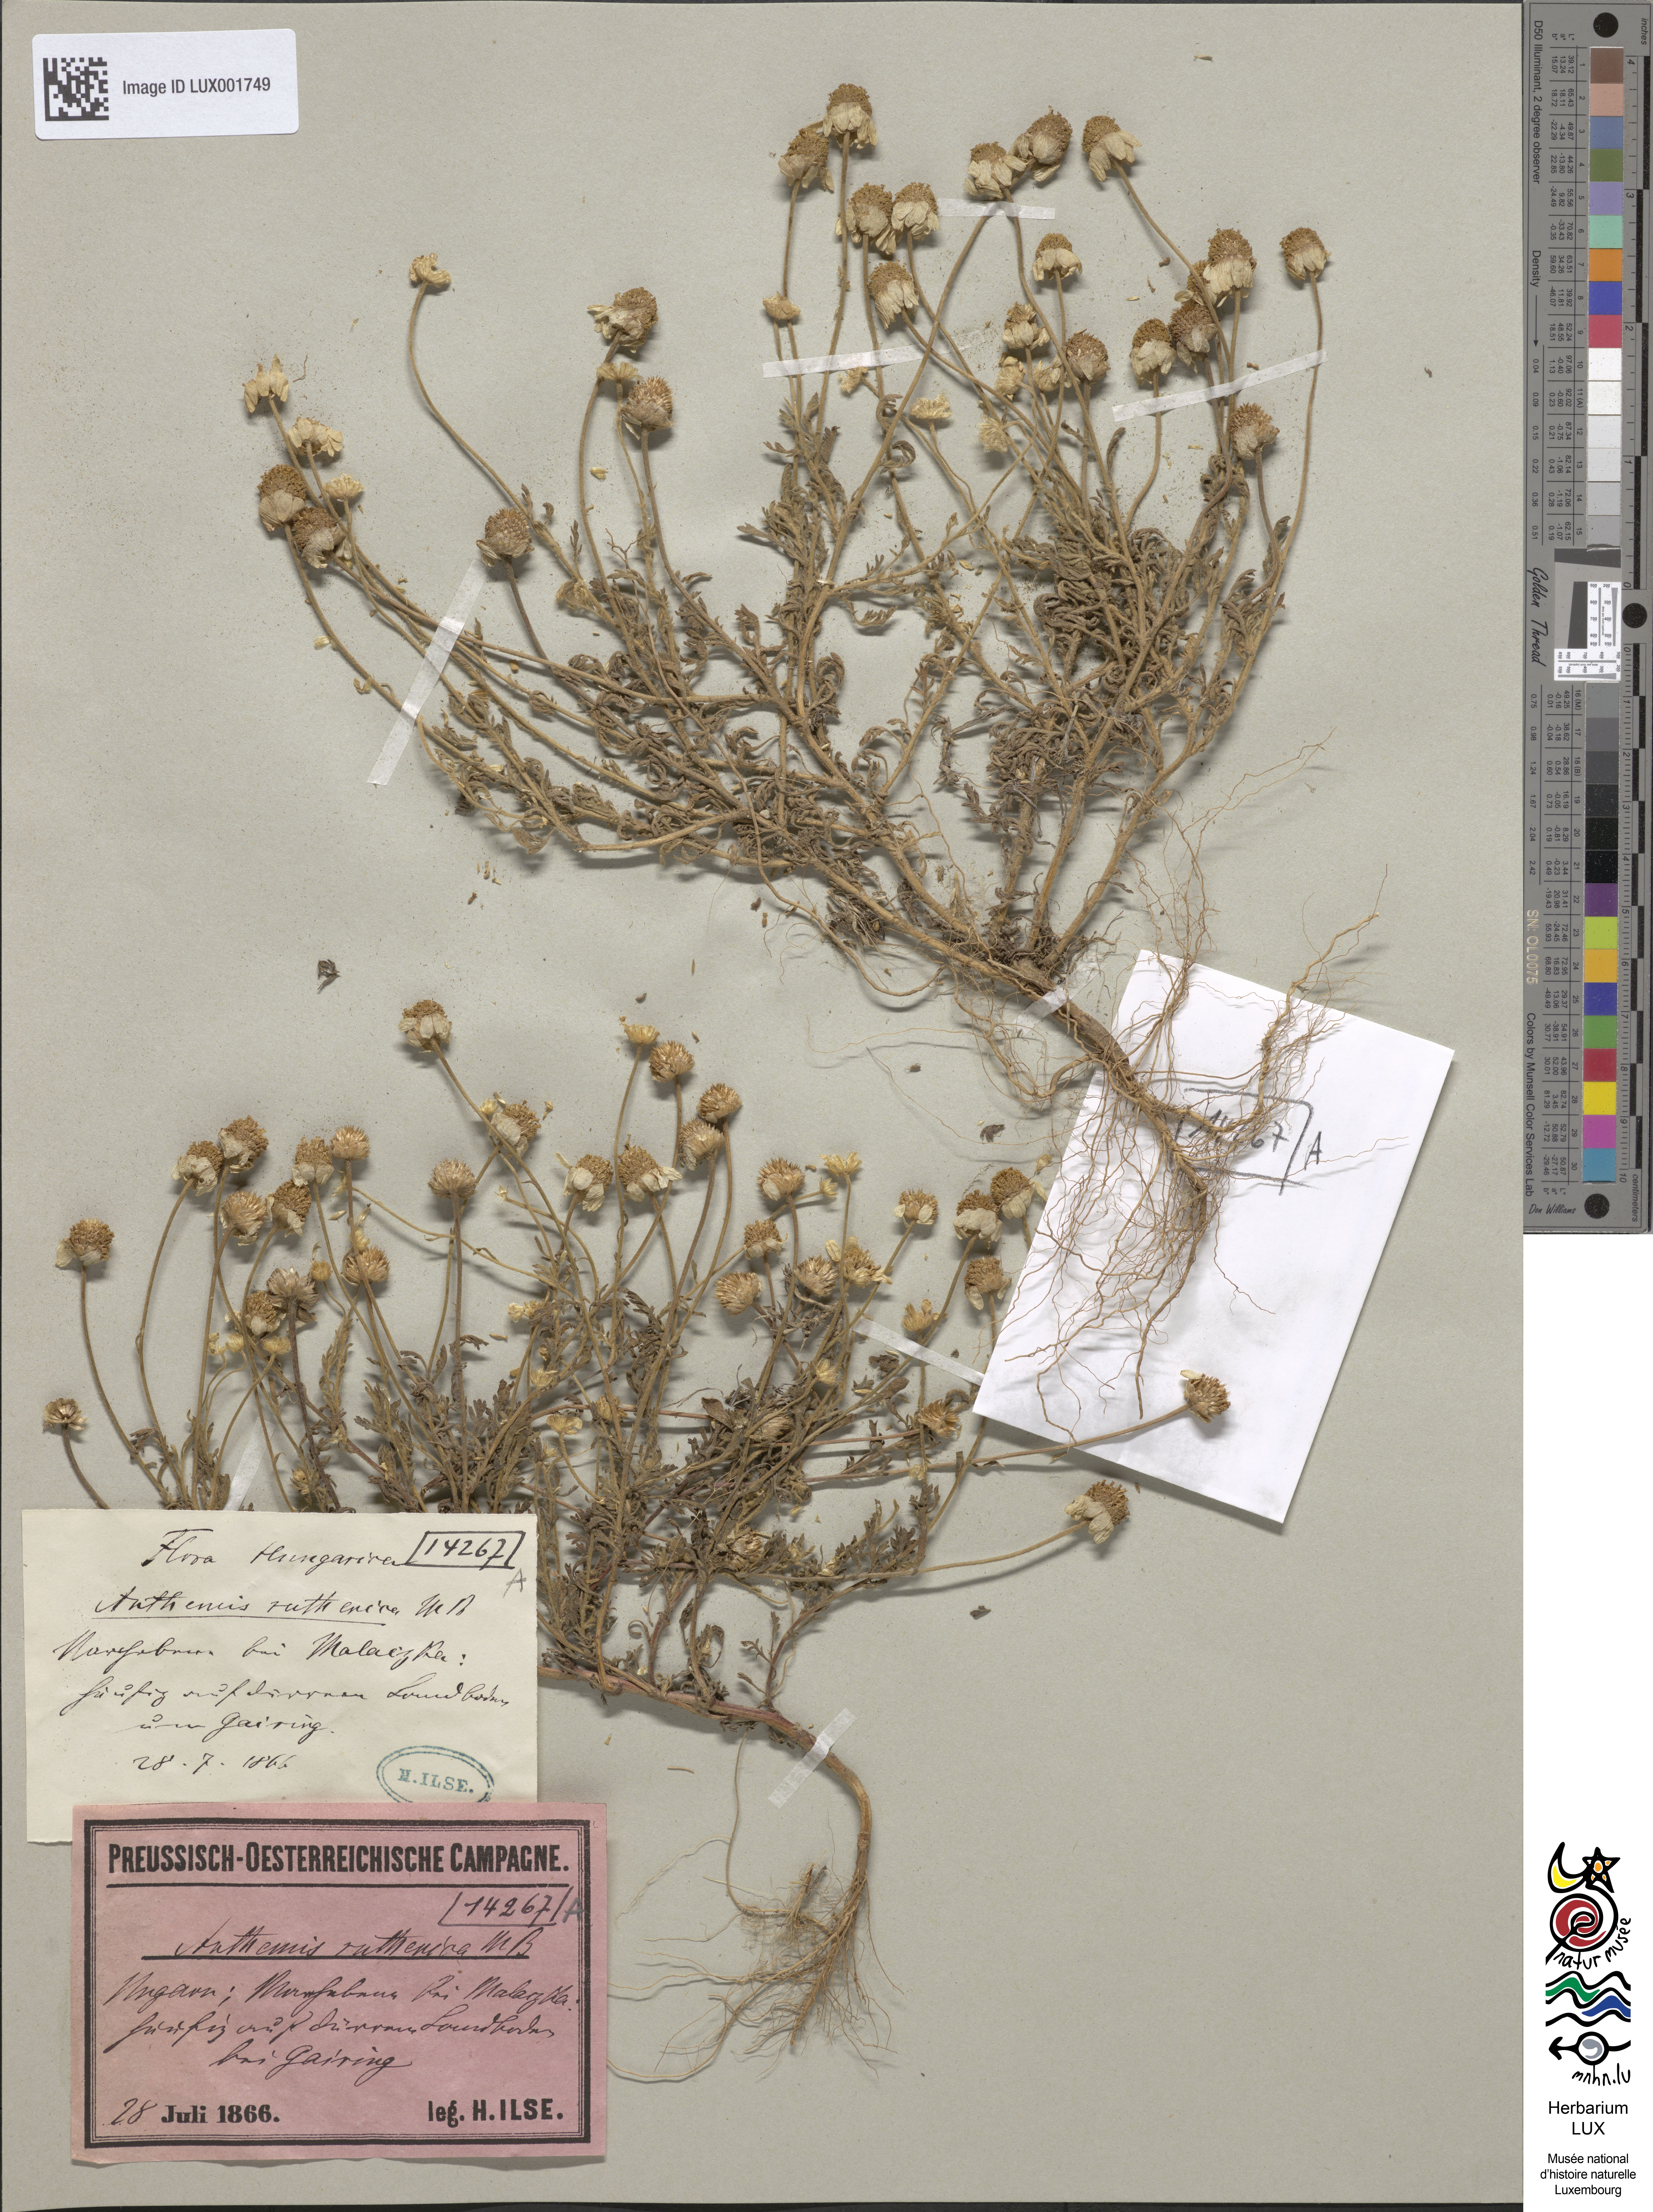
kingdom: Plantae
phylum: Tracheophyta
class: Magnoliopsida
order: Asterales
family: Asteraceae
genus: Anthemis
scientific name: Anthemis ruthenica
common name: Eastern chamomile
